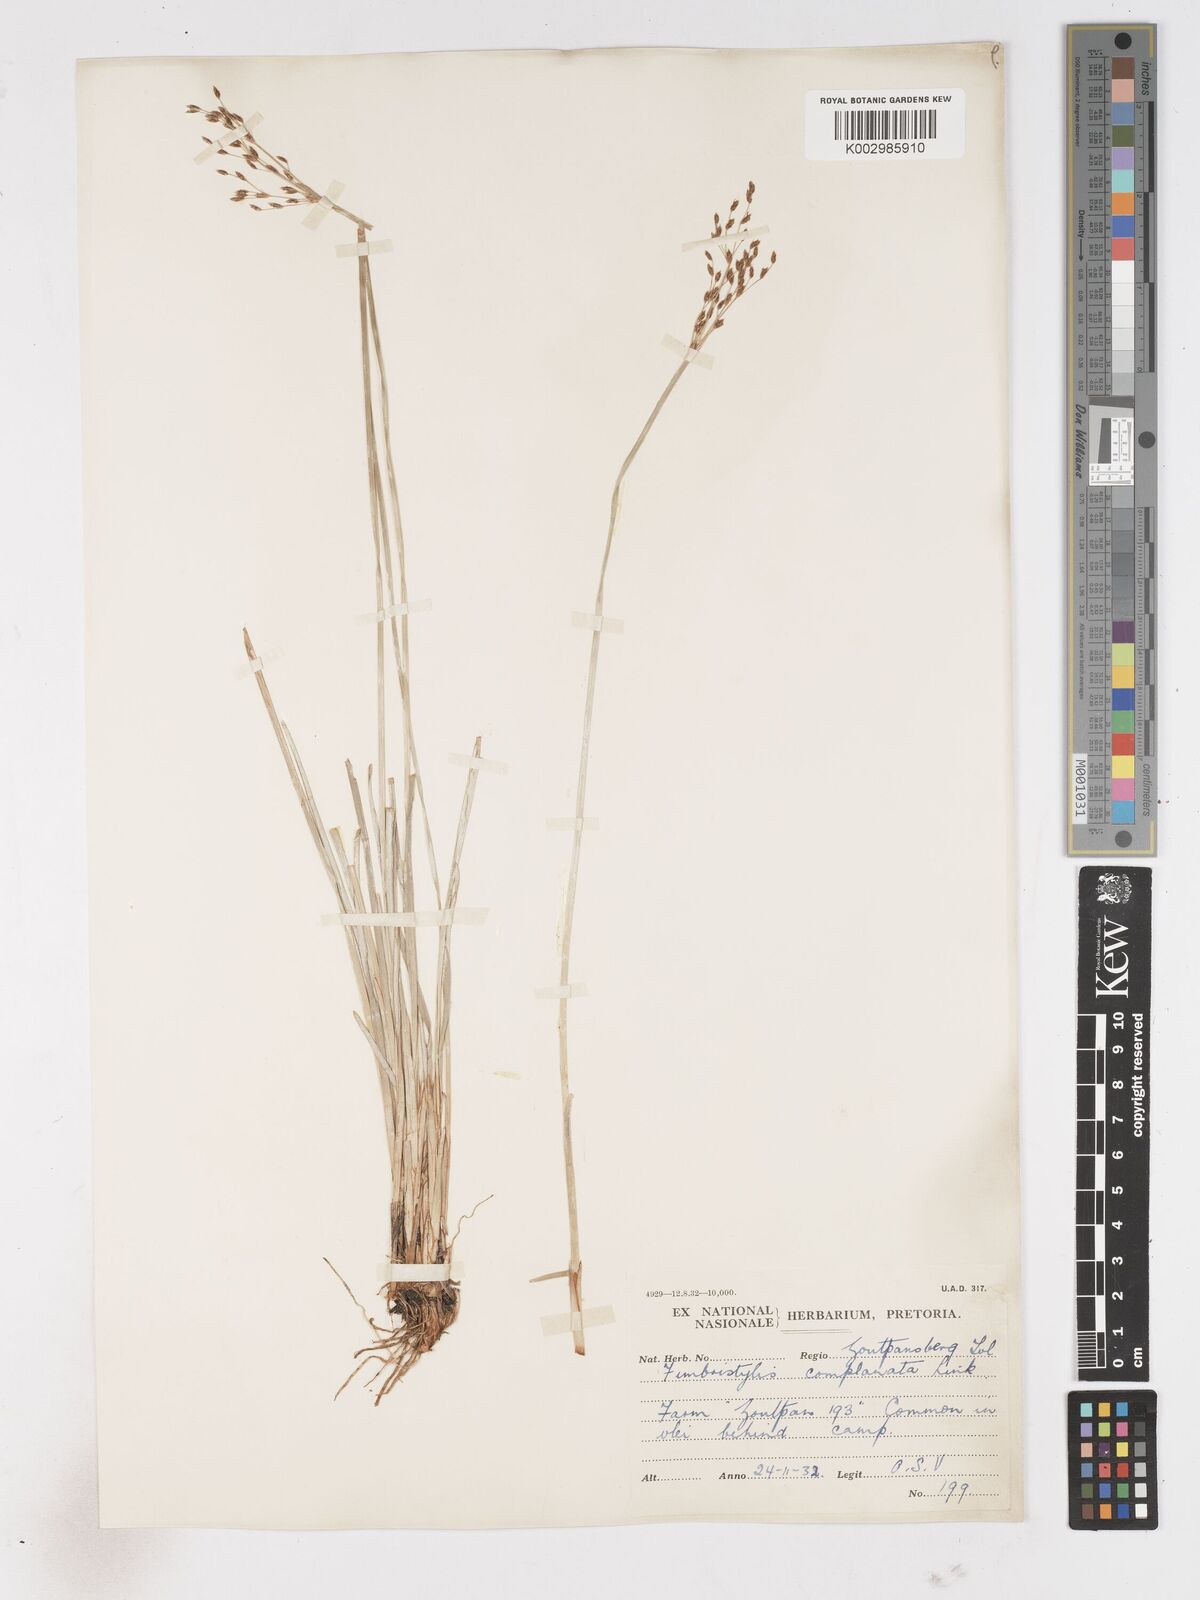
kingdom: Plantae
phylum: Tracheophyta
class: Liliopsida
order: Poales
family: Cyperaceae
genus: Fimbristylis
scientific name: Fimbristylis complanata
